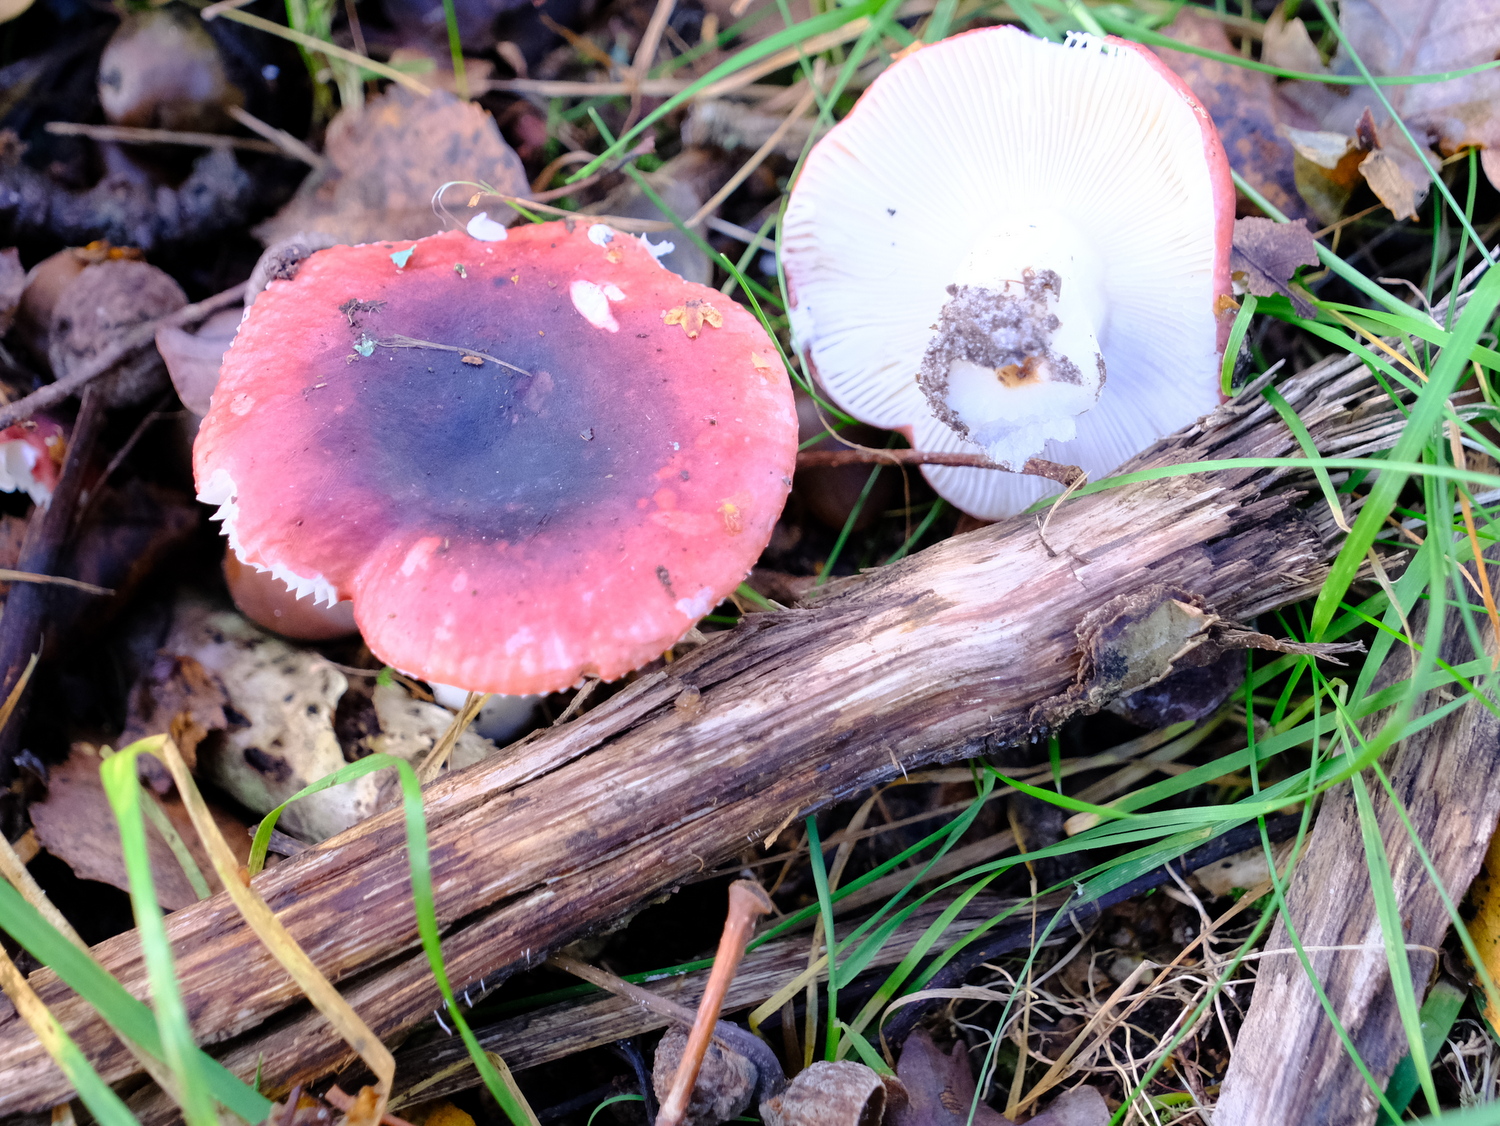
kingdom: Fungi
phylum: Basidiomycota
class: Agaricomycetes
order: Russulales
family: Russulaceae
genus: Russula
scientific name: Russula fragilis
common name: savbladet skørhat
